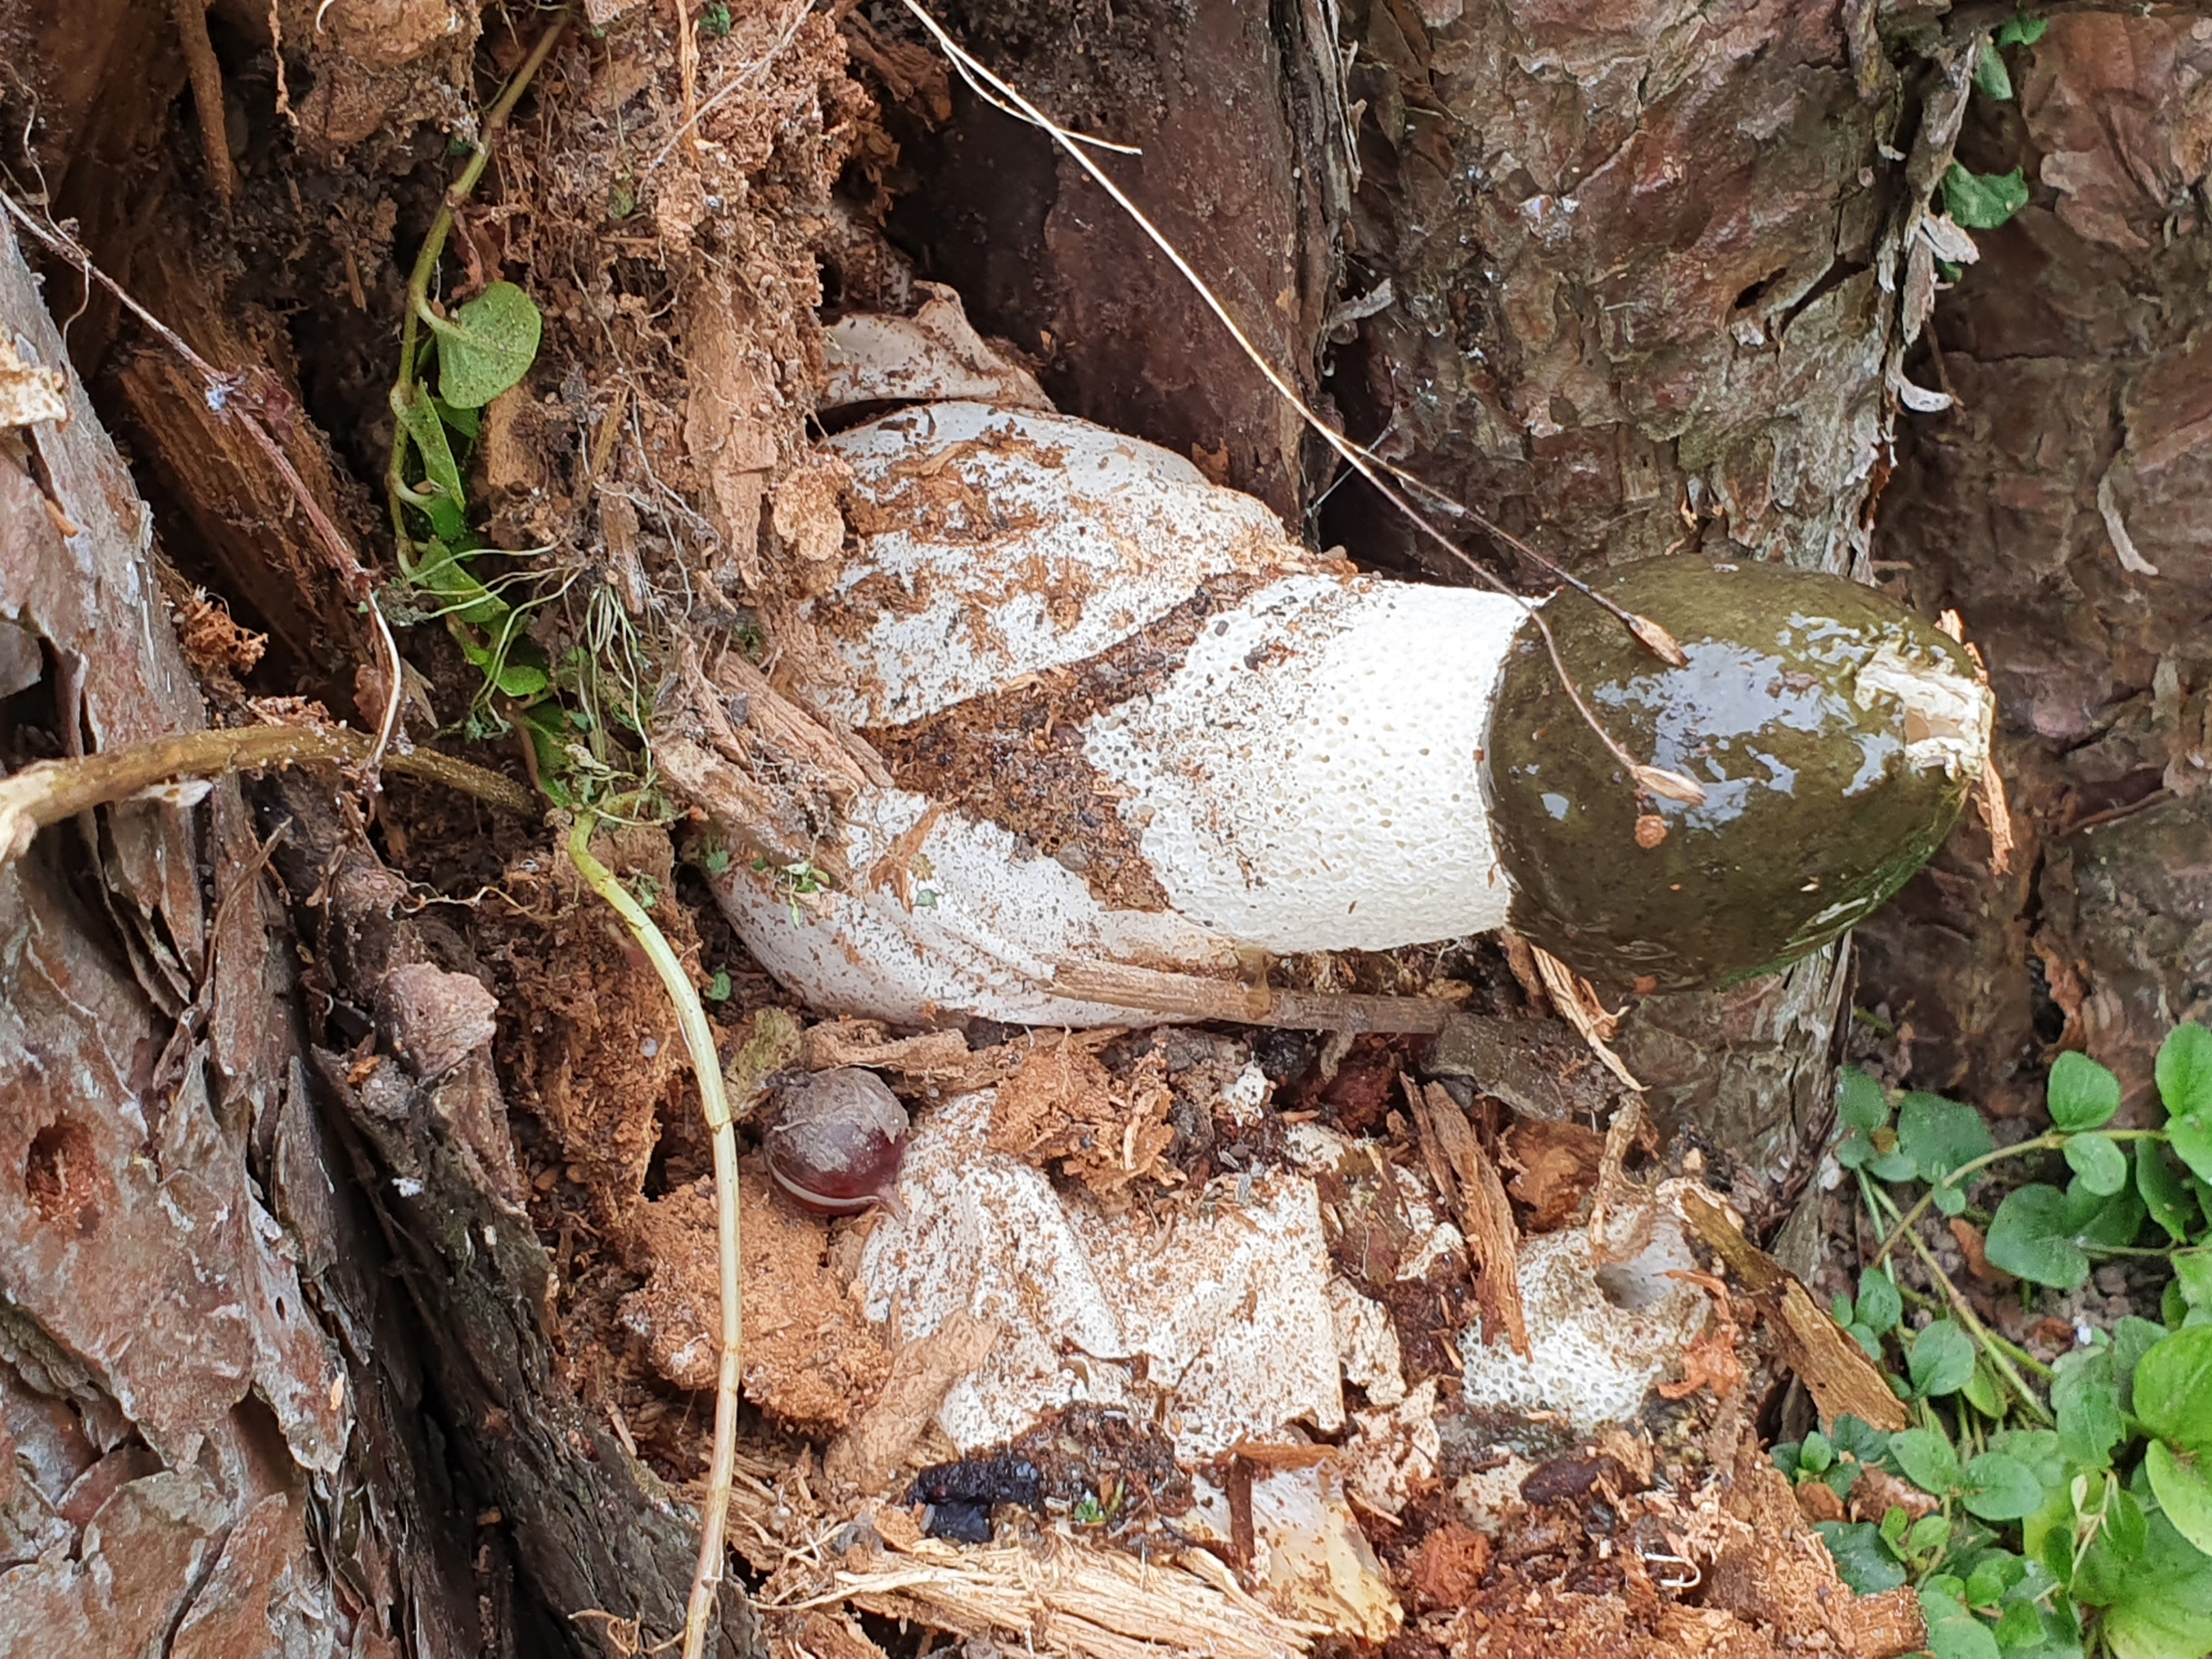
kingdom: Fungi
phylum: Basidiomycota
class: Agaricomycetes
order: Phallales
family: Phallaceae
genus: Phallus
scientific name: Phallus impudicus
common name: Almindelig stinksvamp
